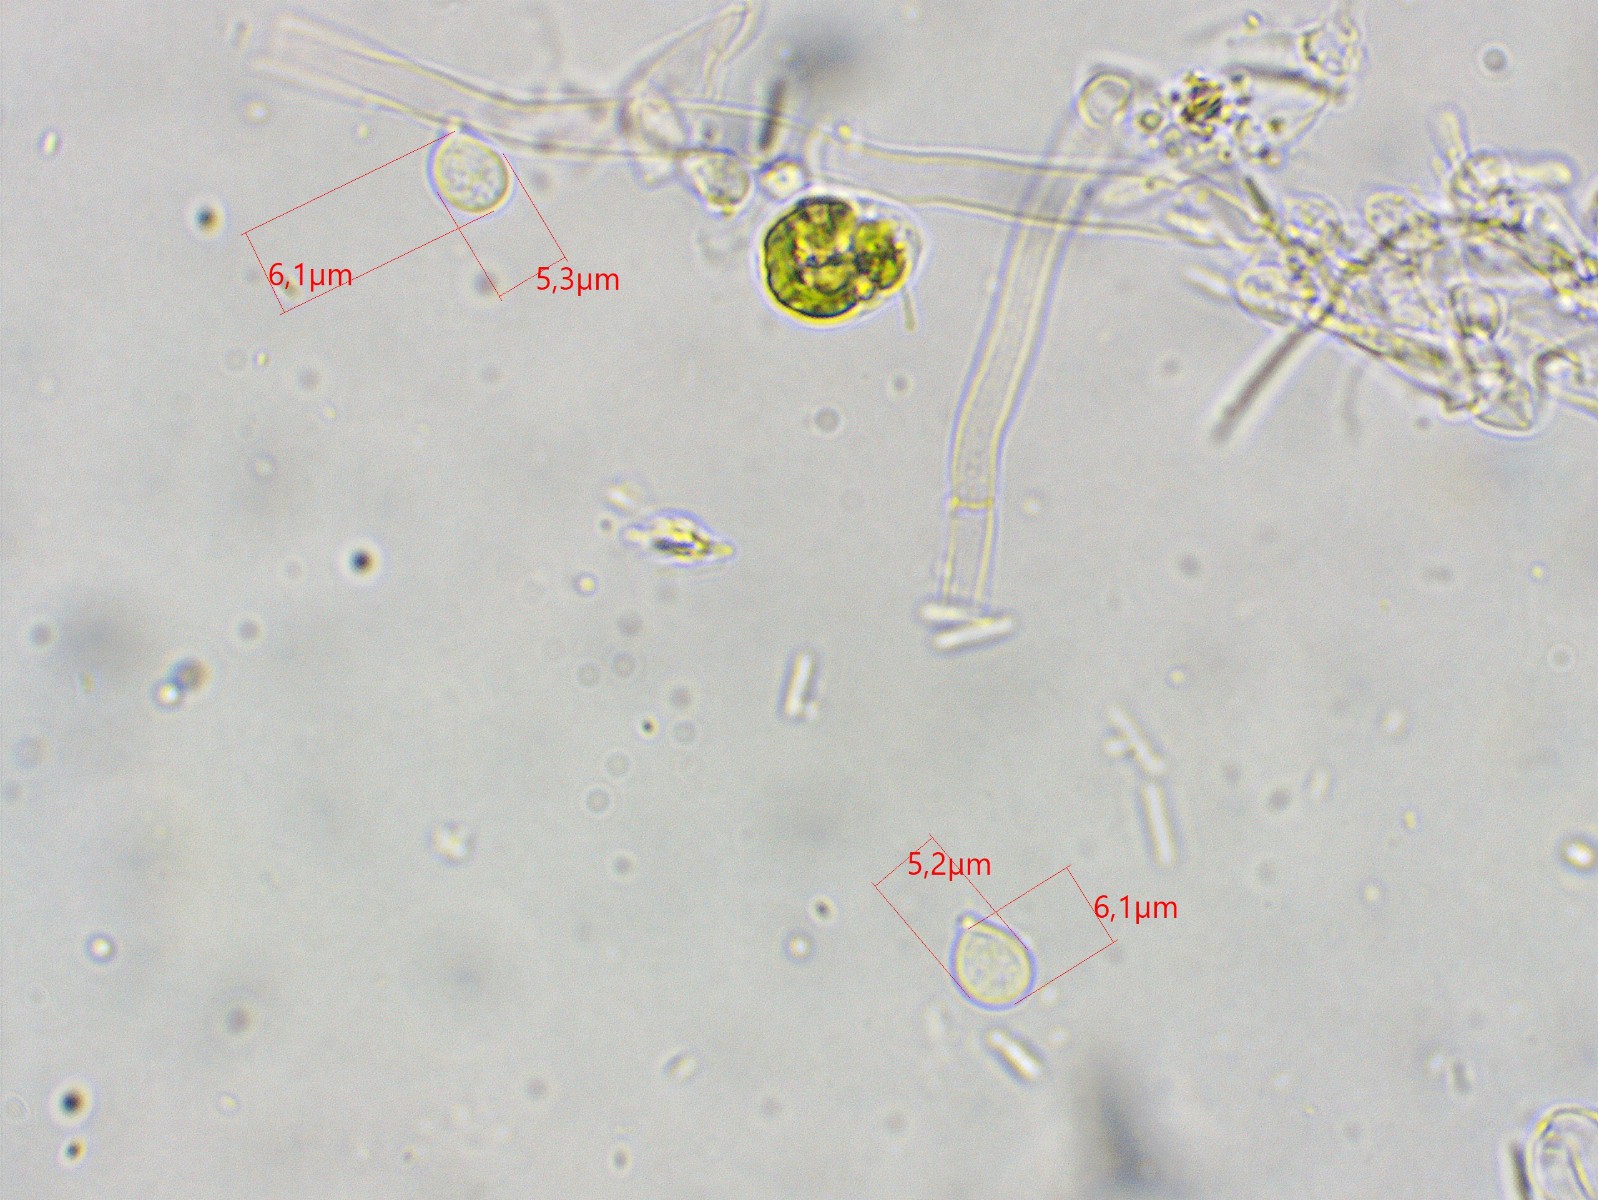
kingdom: Fungi
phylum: Basidiomycota
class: Agaricomycetes
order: Cantharellales
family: Tulasnellaceae
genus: Tulasnella
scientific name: Tulasnella albida
